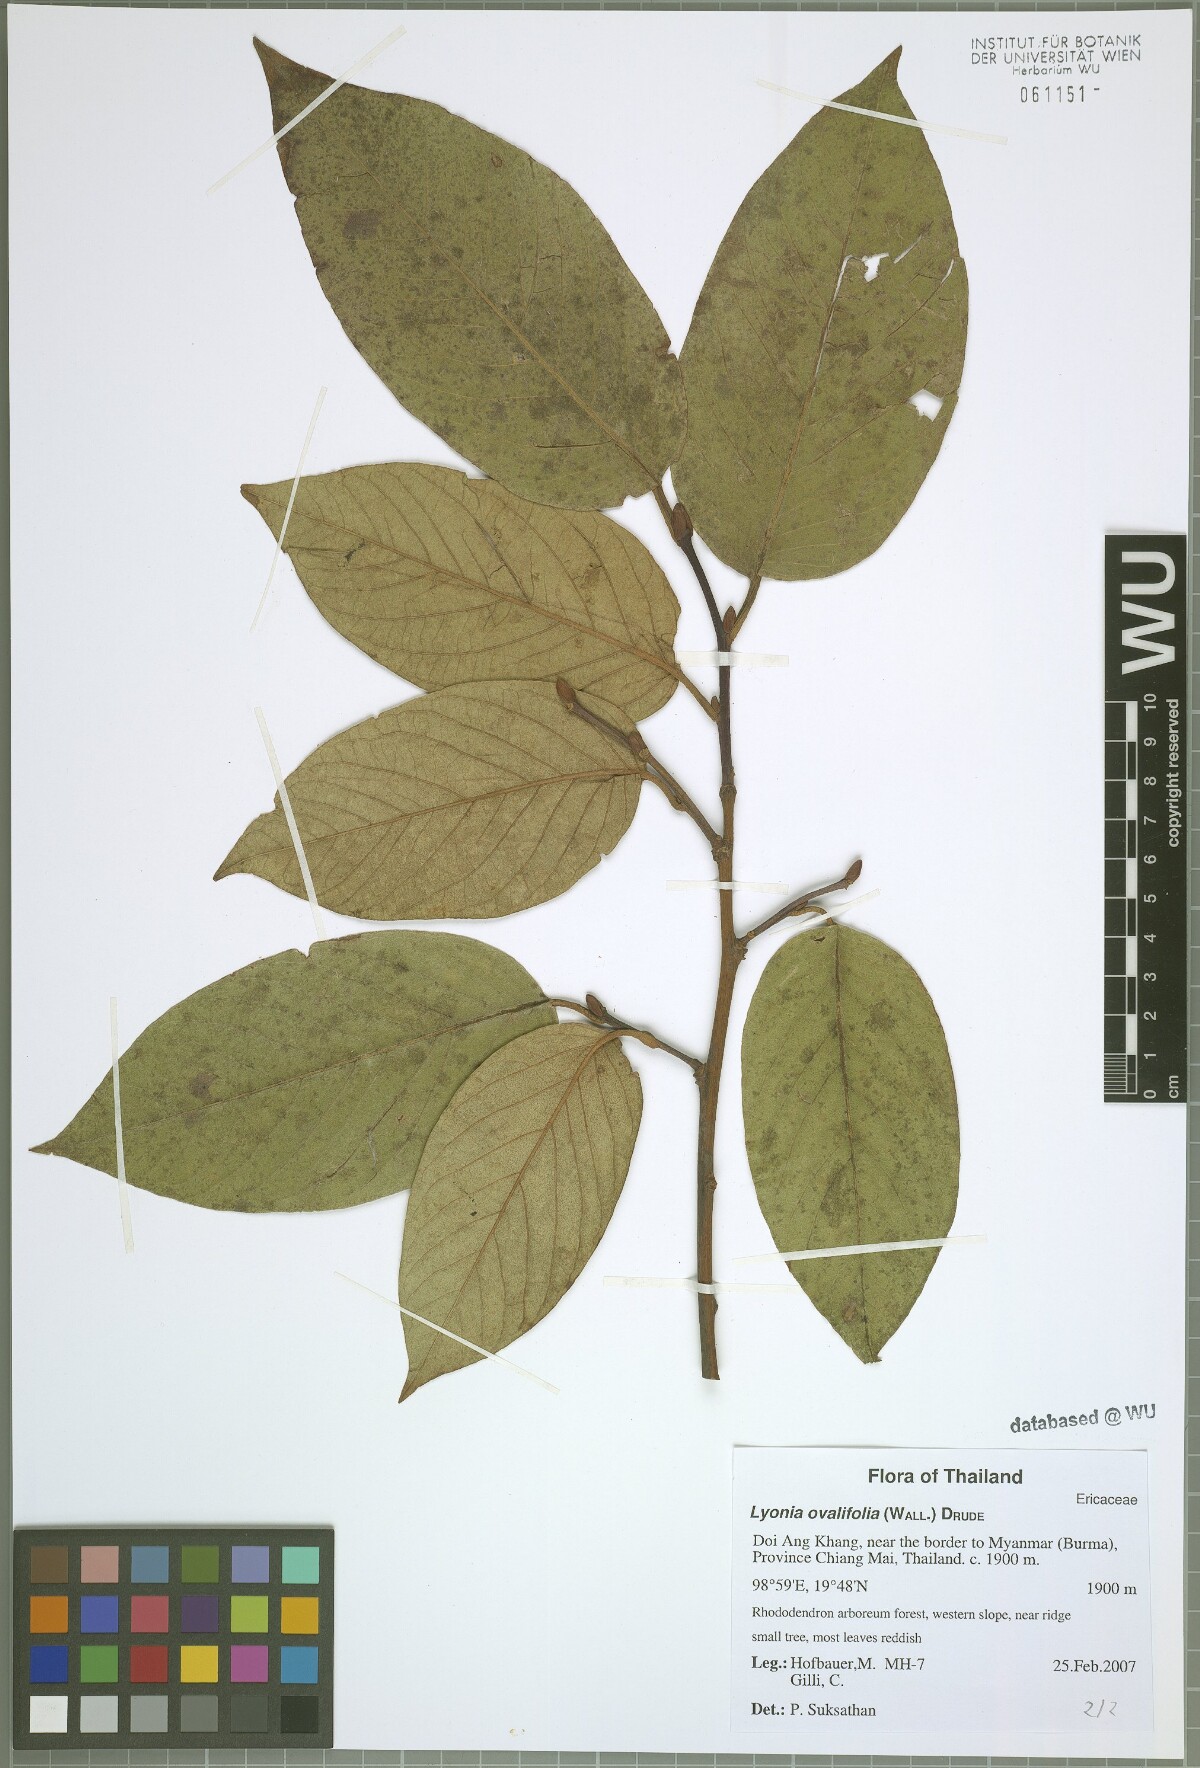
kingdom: Plantae
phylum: Tracheophyta
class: Magnoliopsida
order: Ericales
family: Ericaceae
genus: Lyonia
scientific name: Lyonia ovalifolia
